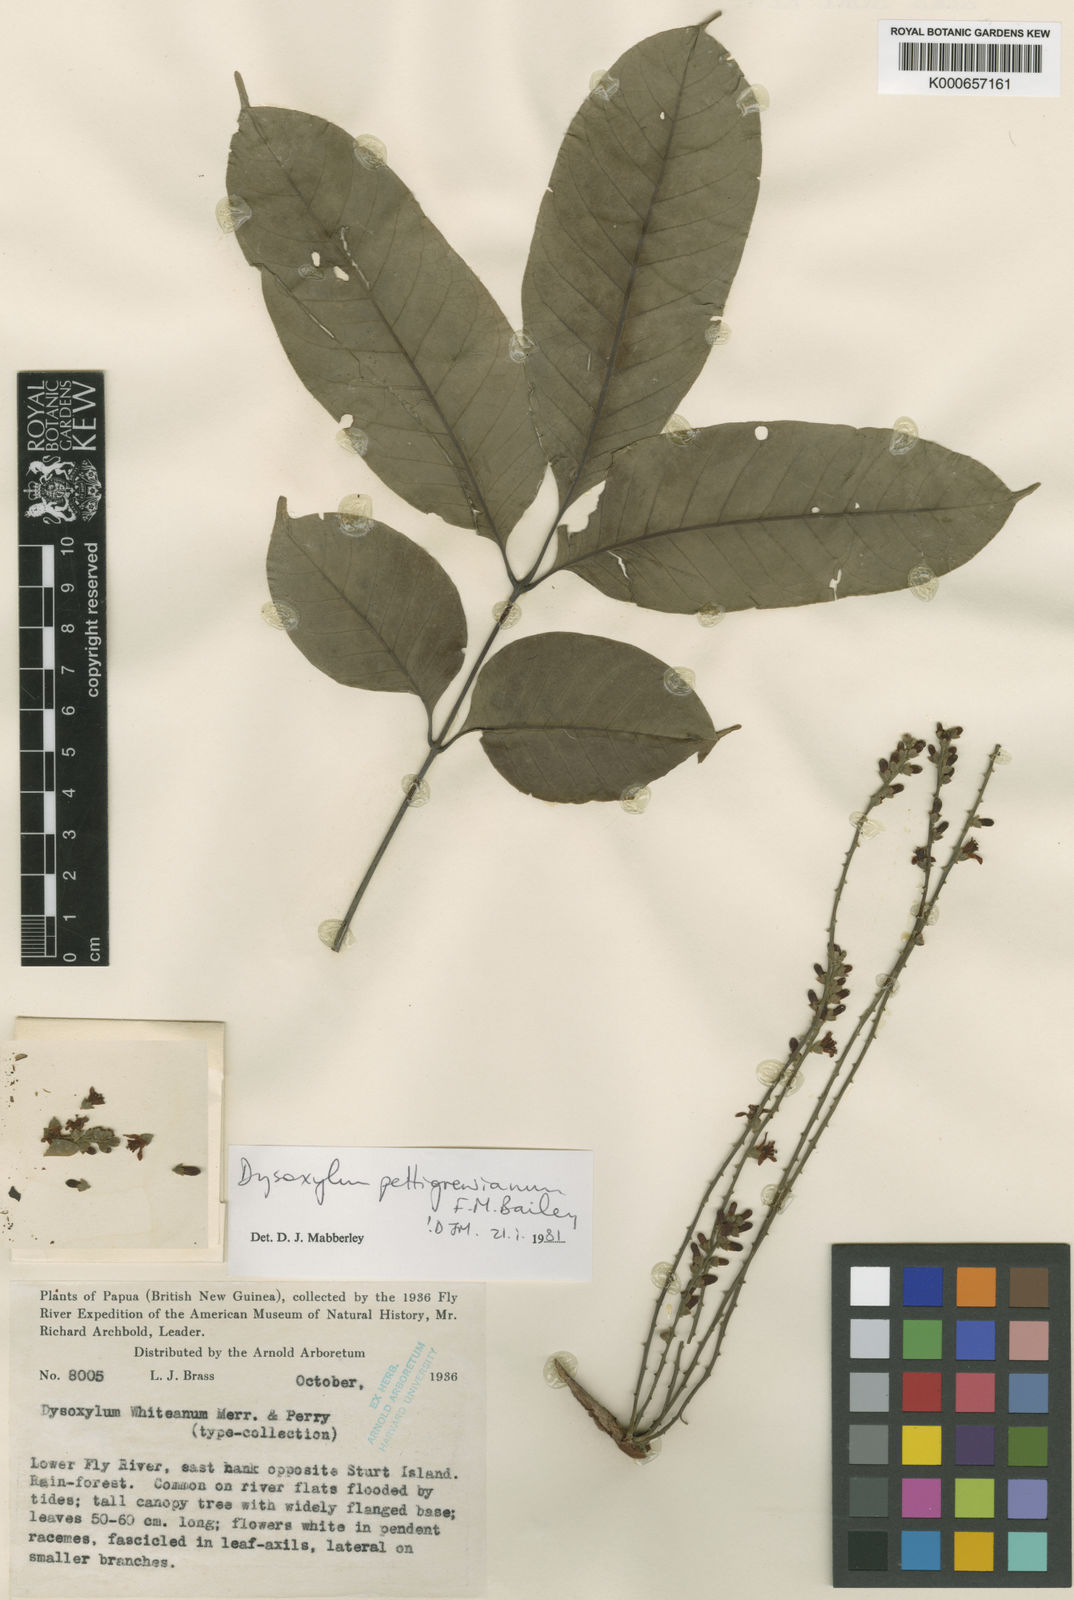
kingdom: Plantae
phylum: Tracheophyta
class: Magnoliopsida
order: Sapindales
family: Meliaceae
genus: Didymocheton
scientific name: Didymocheton pettigrewianus
